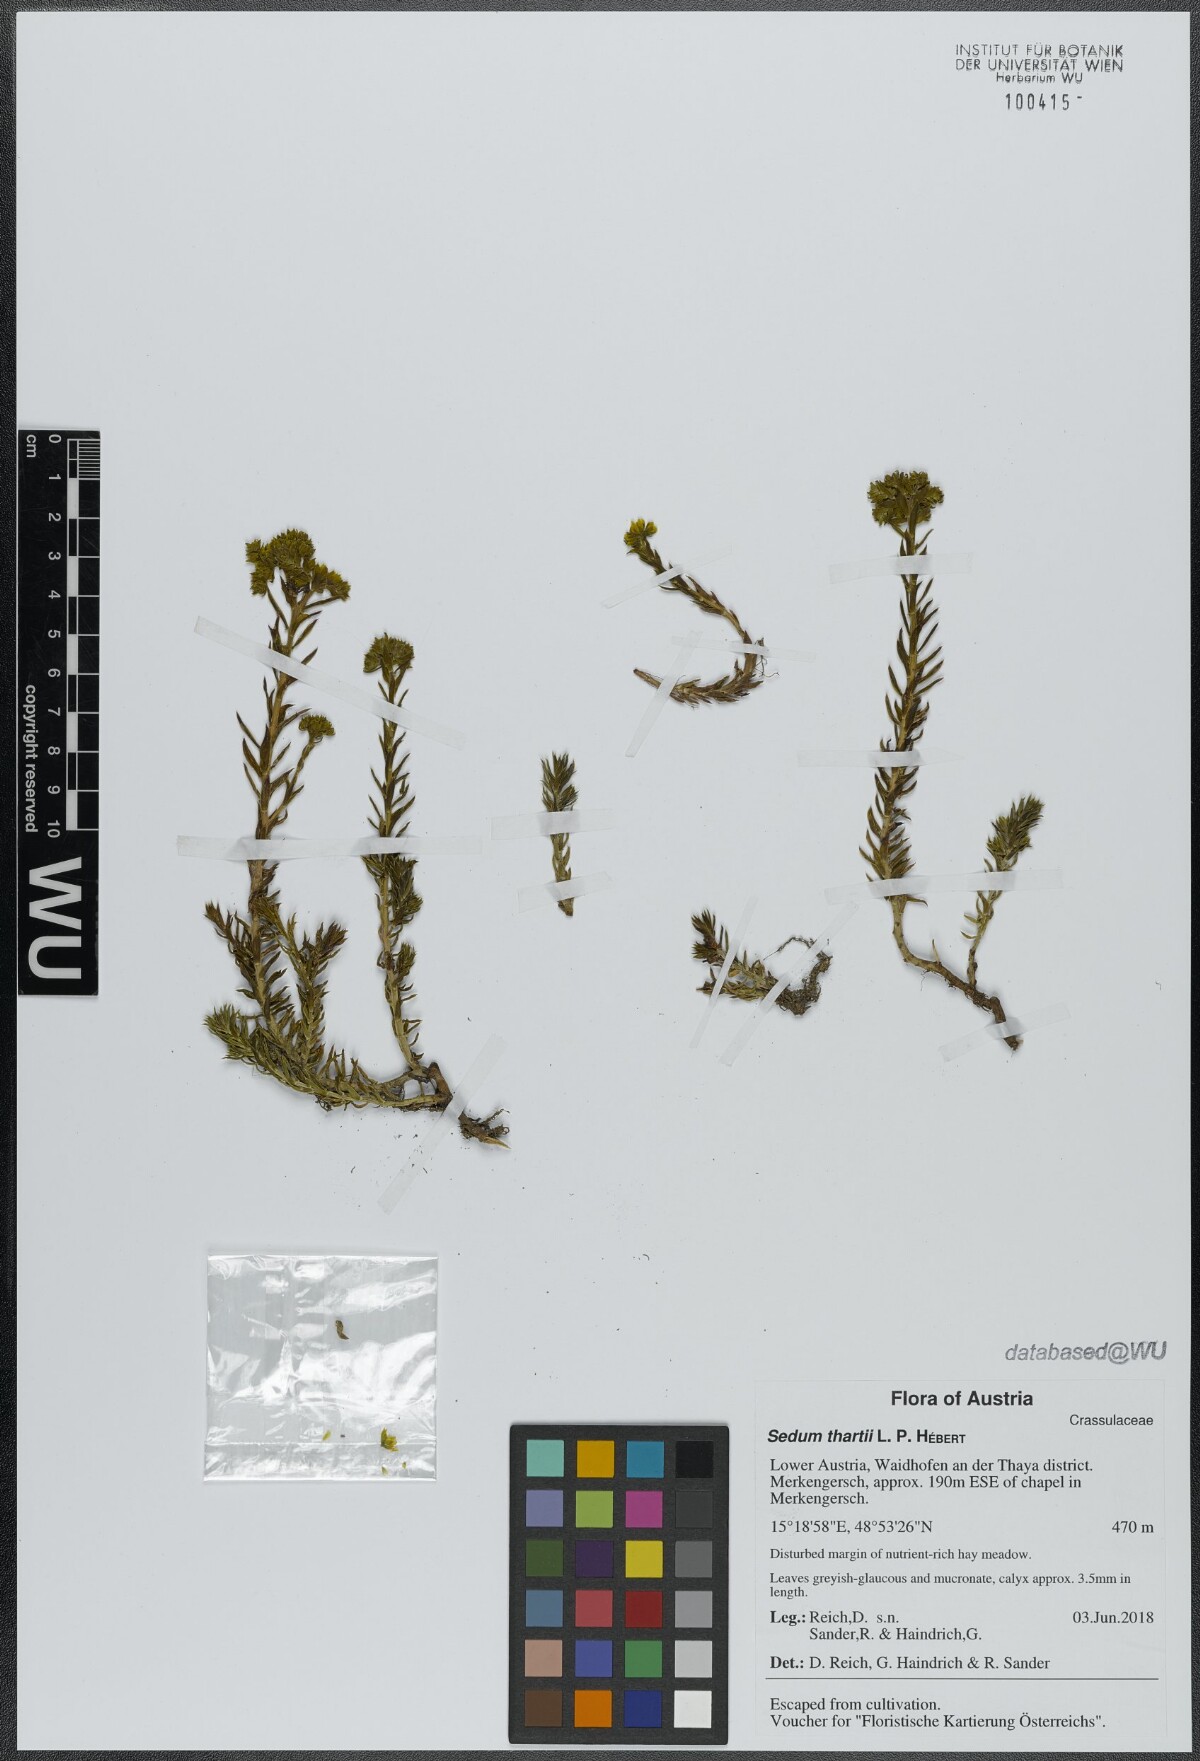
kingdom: Plantae
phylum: Tracheophyta
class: Magnoliopsida
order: Saxifragales
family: Crassulaceae
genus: Petrosedum
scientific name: Petrosedum orientale
